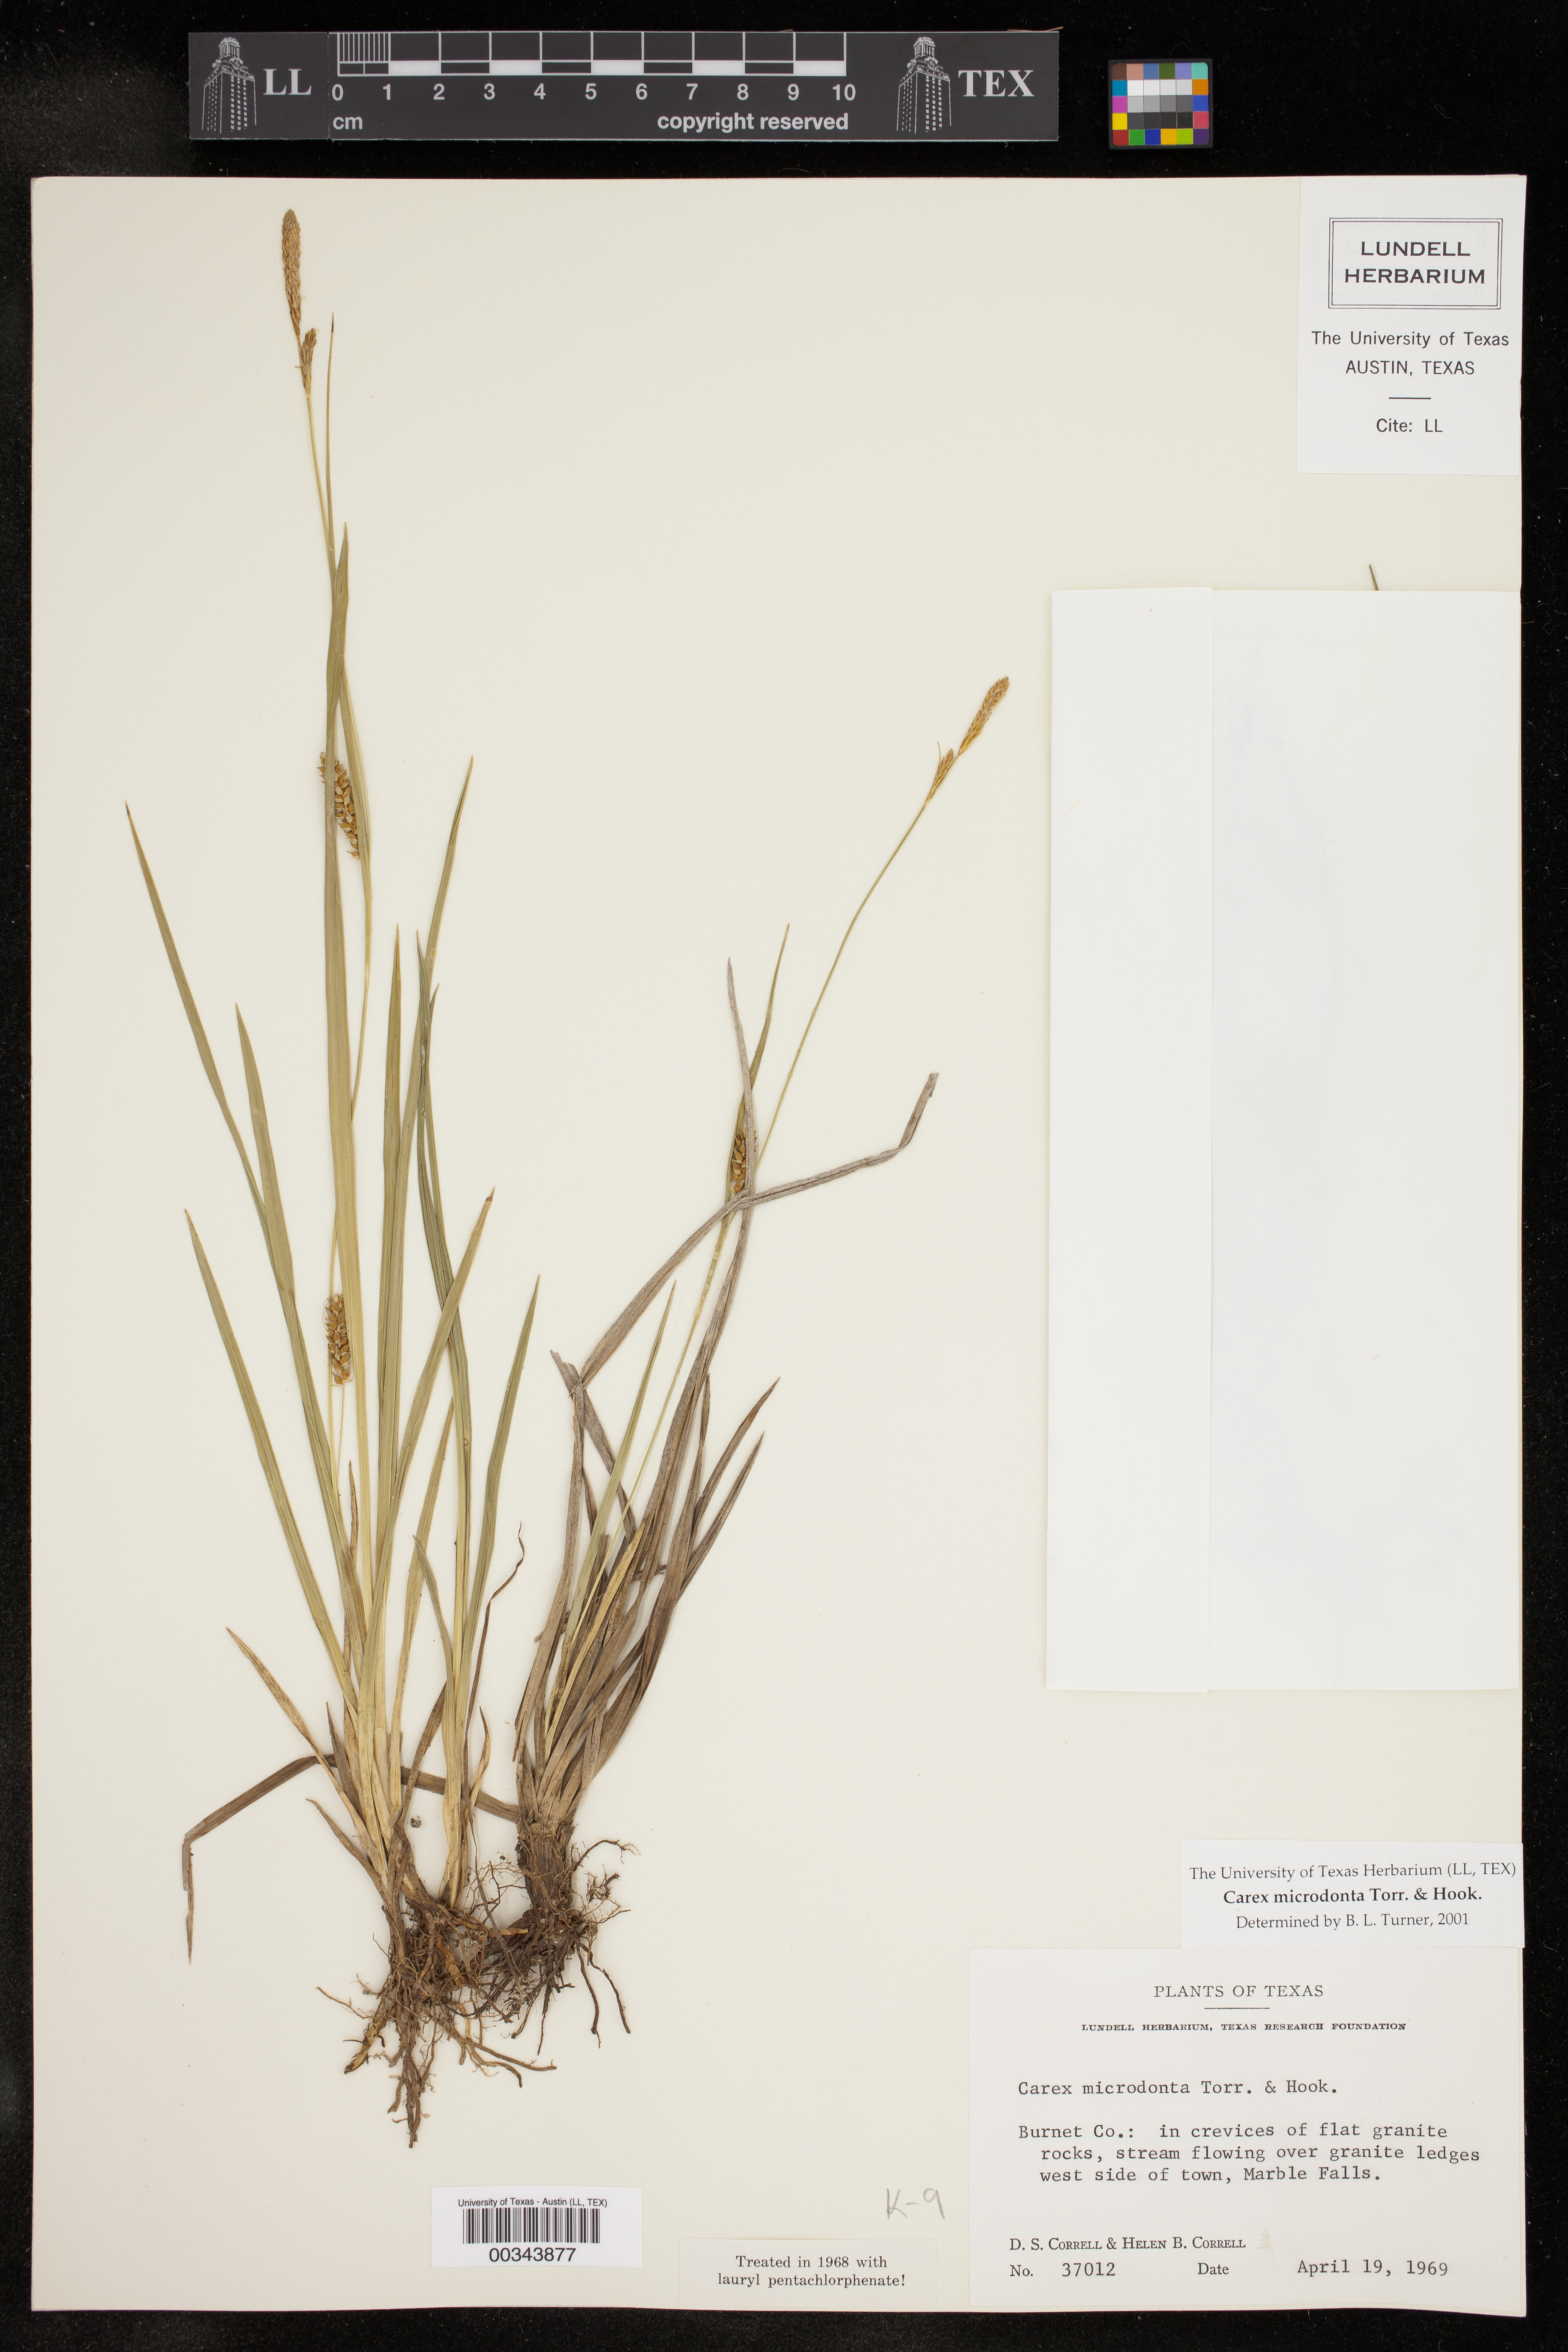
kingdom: Plantae
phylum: Tracheophyta
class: Liliopsida
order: Poales
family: Cyperaceae
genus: Carex
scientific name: Carex microdonta
